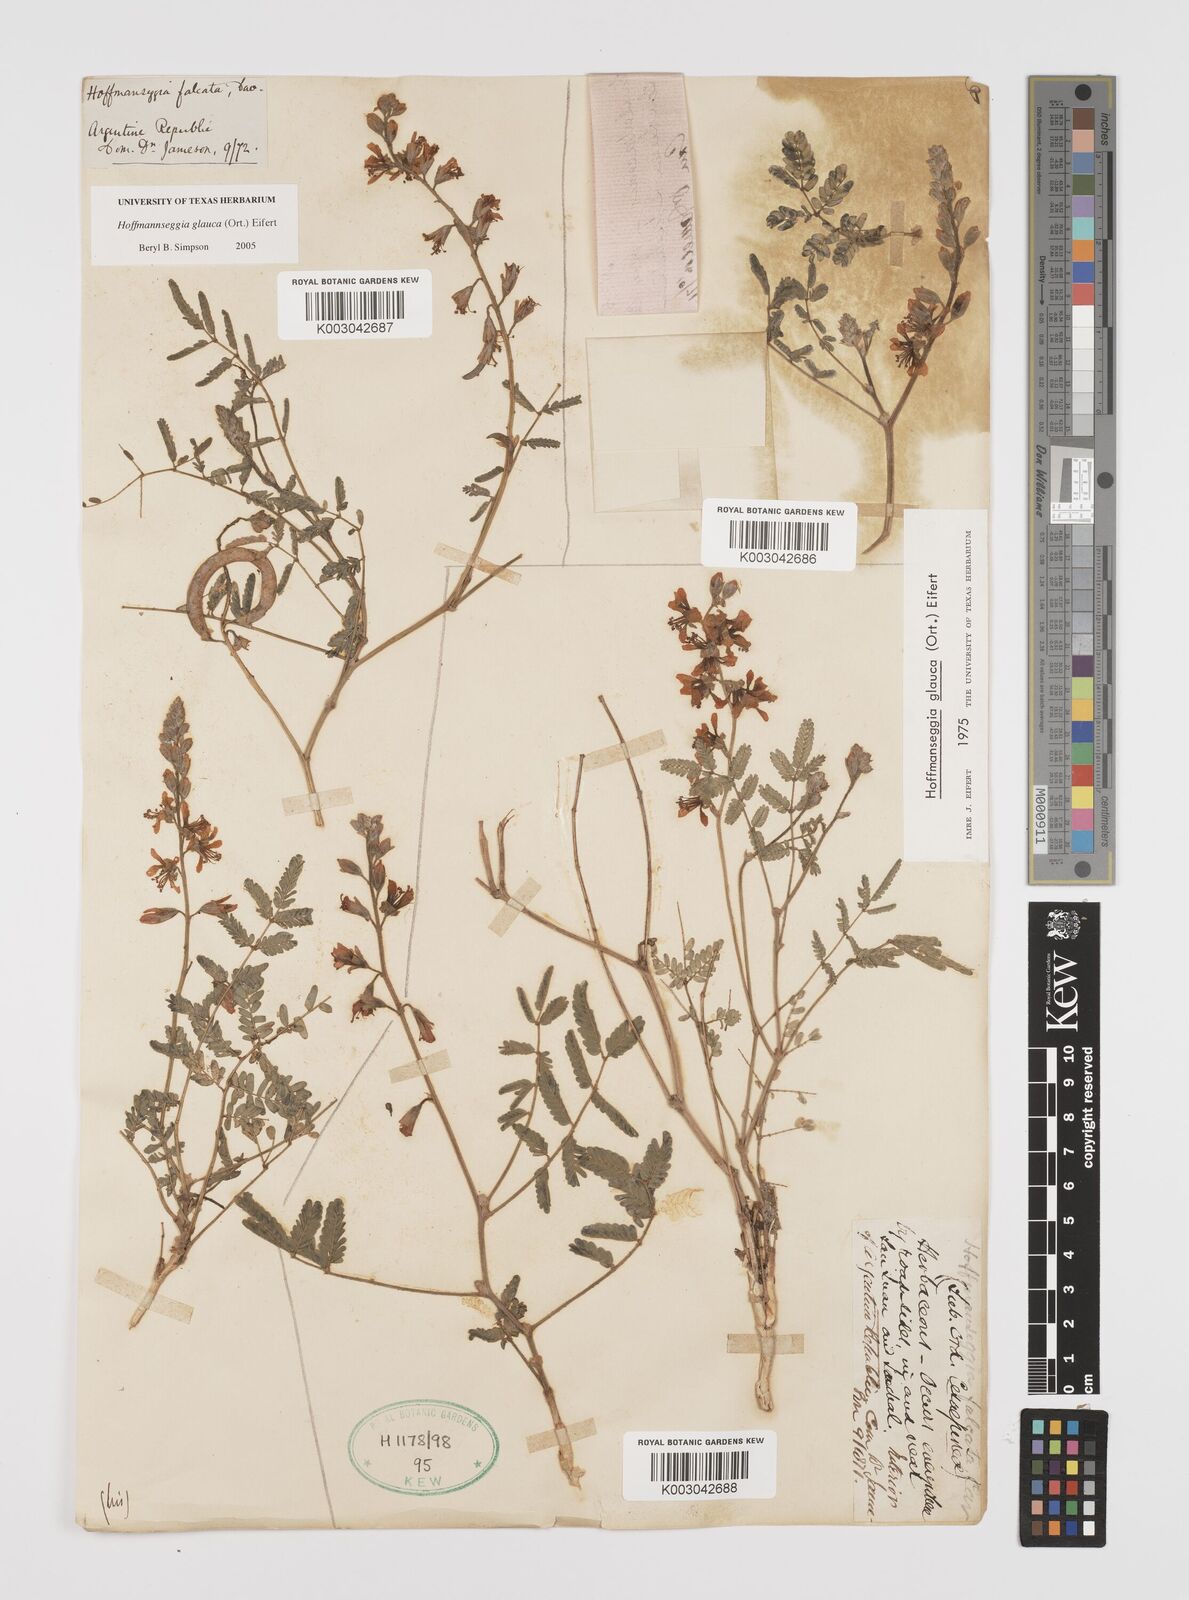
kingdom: Plantae
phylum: Tracheophyta
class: Magnoliopsida
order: Fabales
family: Fabaceae
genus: Hoffmannseggia
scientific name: Hoffmannseggia glauca
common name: Pignut
